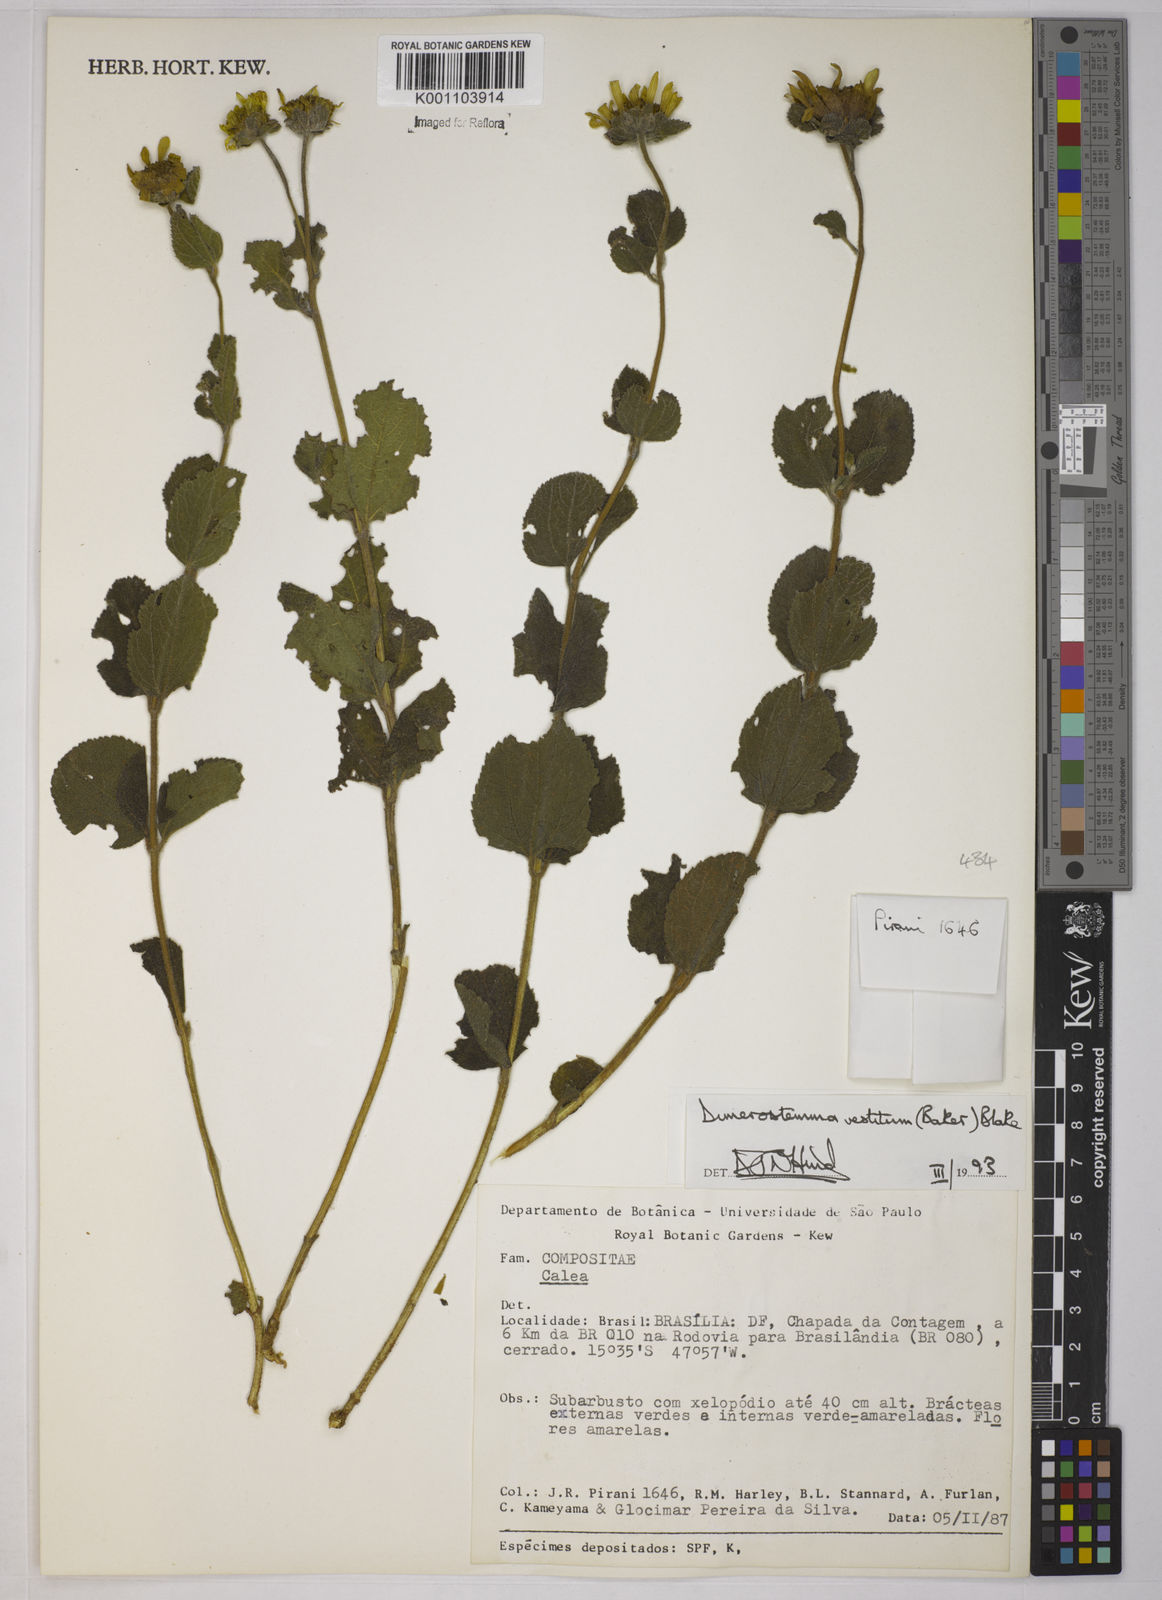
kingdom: Plantae
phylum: Tracheophyta
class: Magnoliopsida
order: Asterales
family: Asteraceae
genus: Dimerostemma
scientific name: Dimerostemma vestitum
